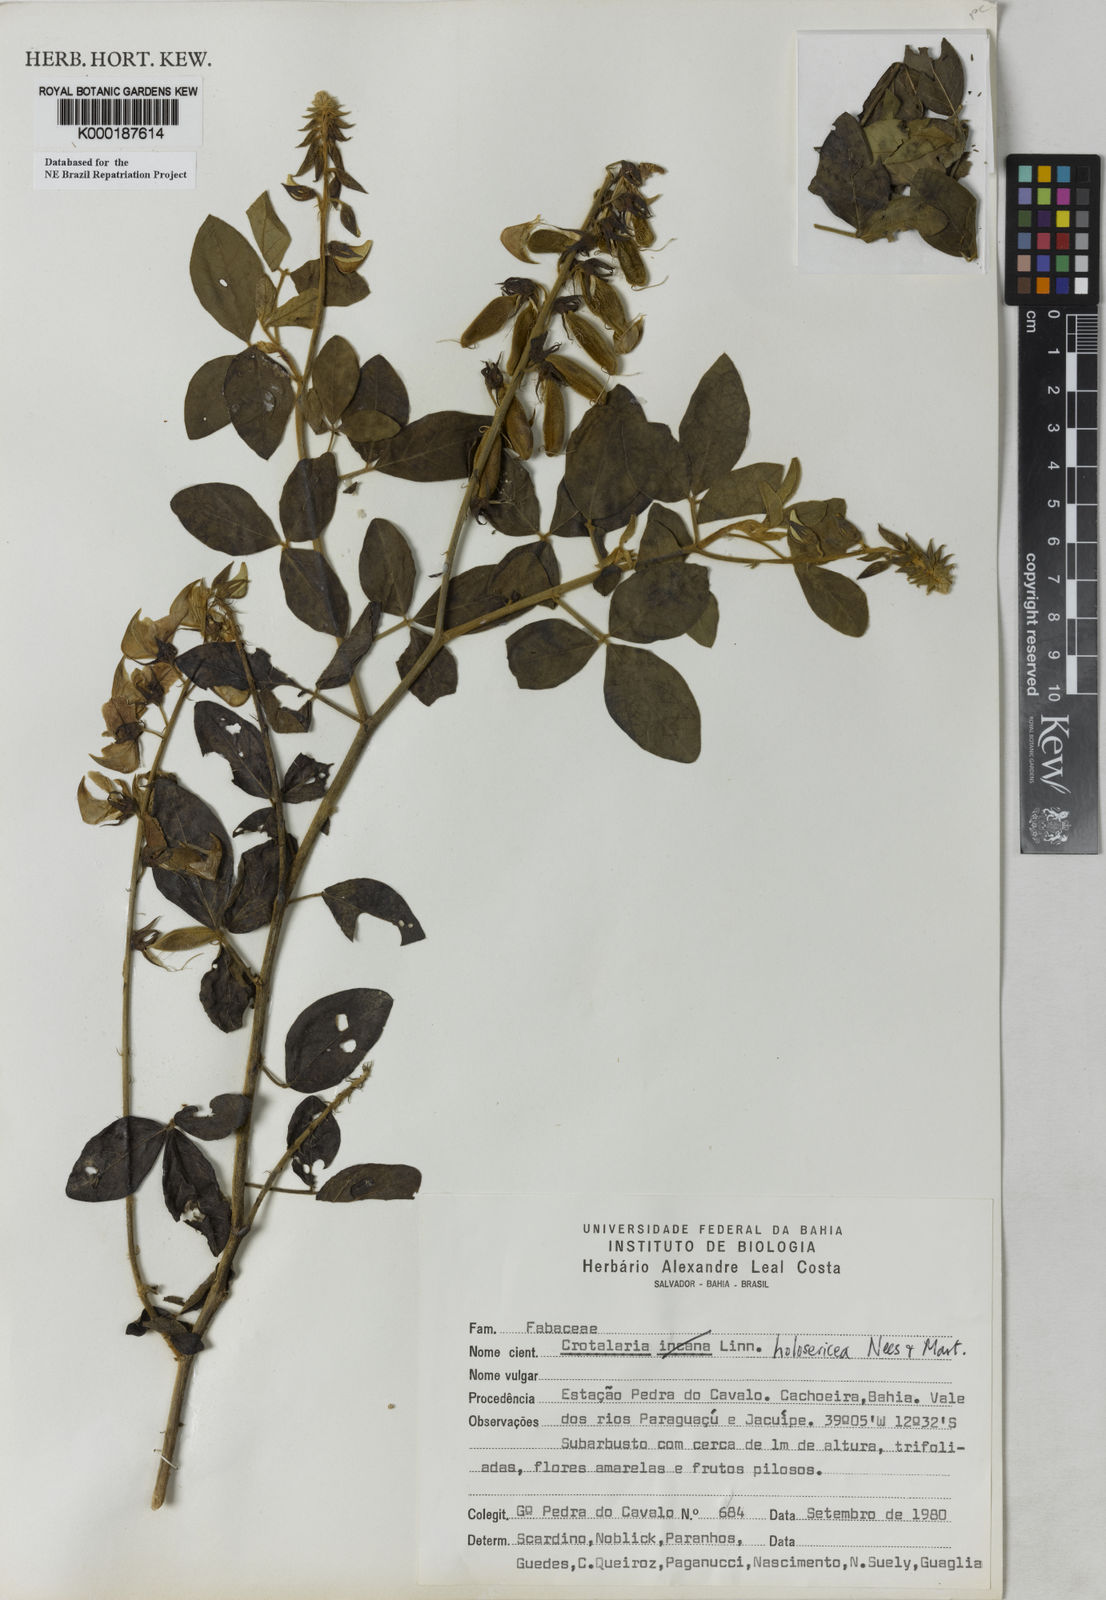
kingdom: Plantae
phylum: Tracheophyta
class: Magnoliopsida
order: Fabales
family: Fabaceae
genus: Crotalaria
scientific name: Crotalaria holosericea
